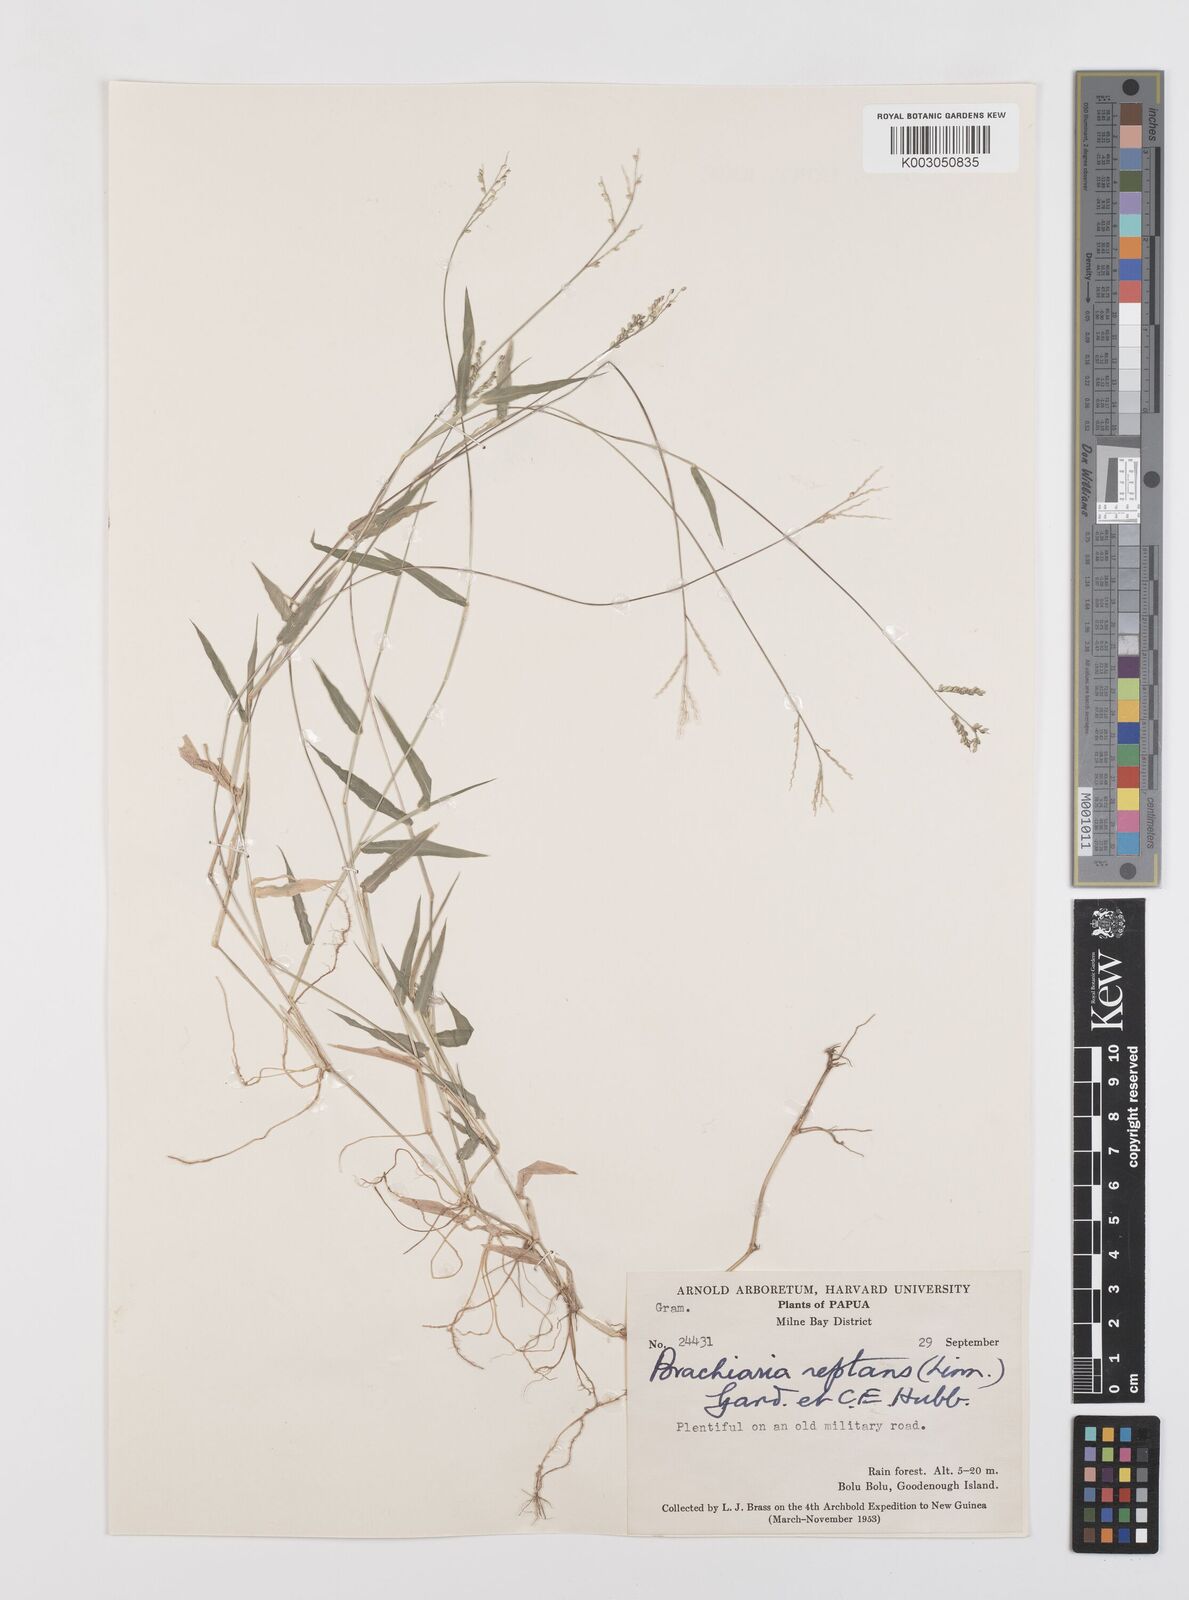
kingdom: Plantae
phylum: Tracheophyta
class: Liliopsida
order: Poales
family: Poaceae
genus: Urochloa
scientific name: Urochloa reptans
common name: Sprawling signalgrass
